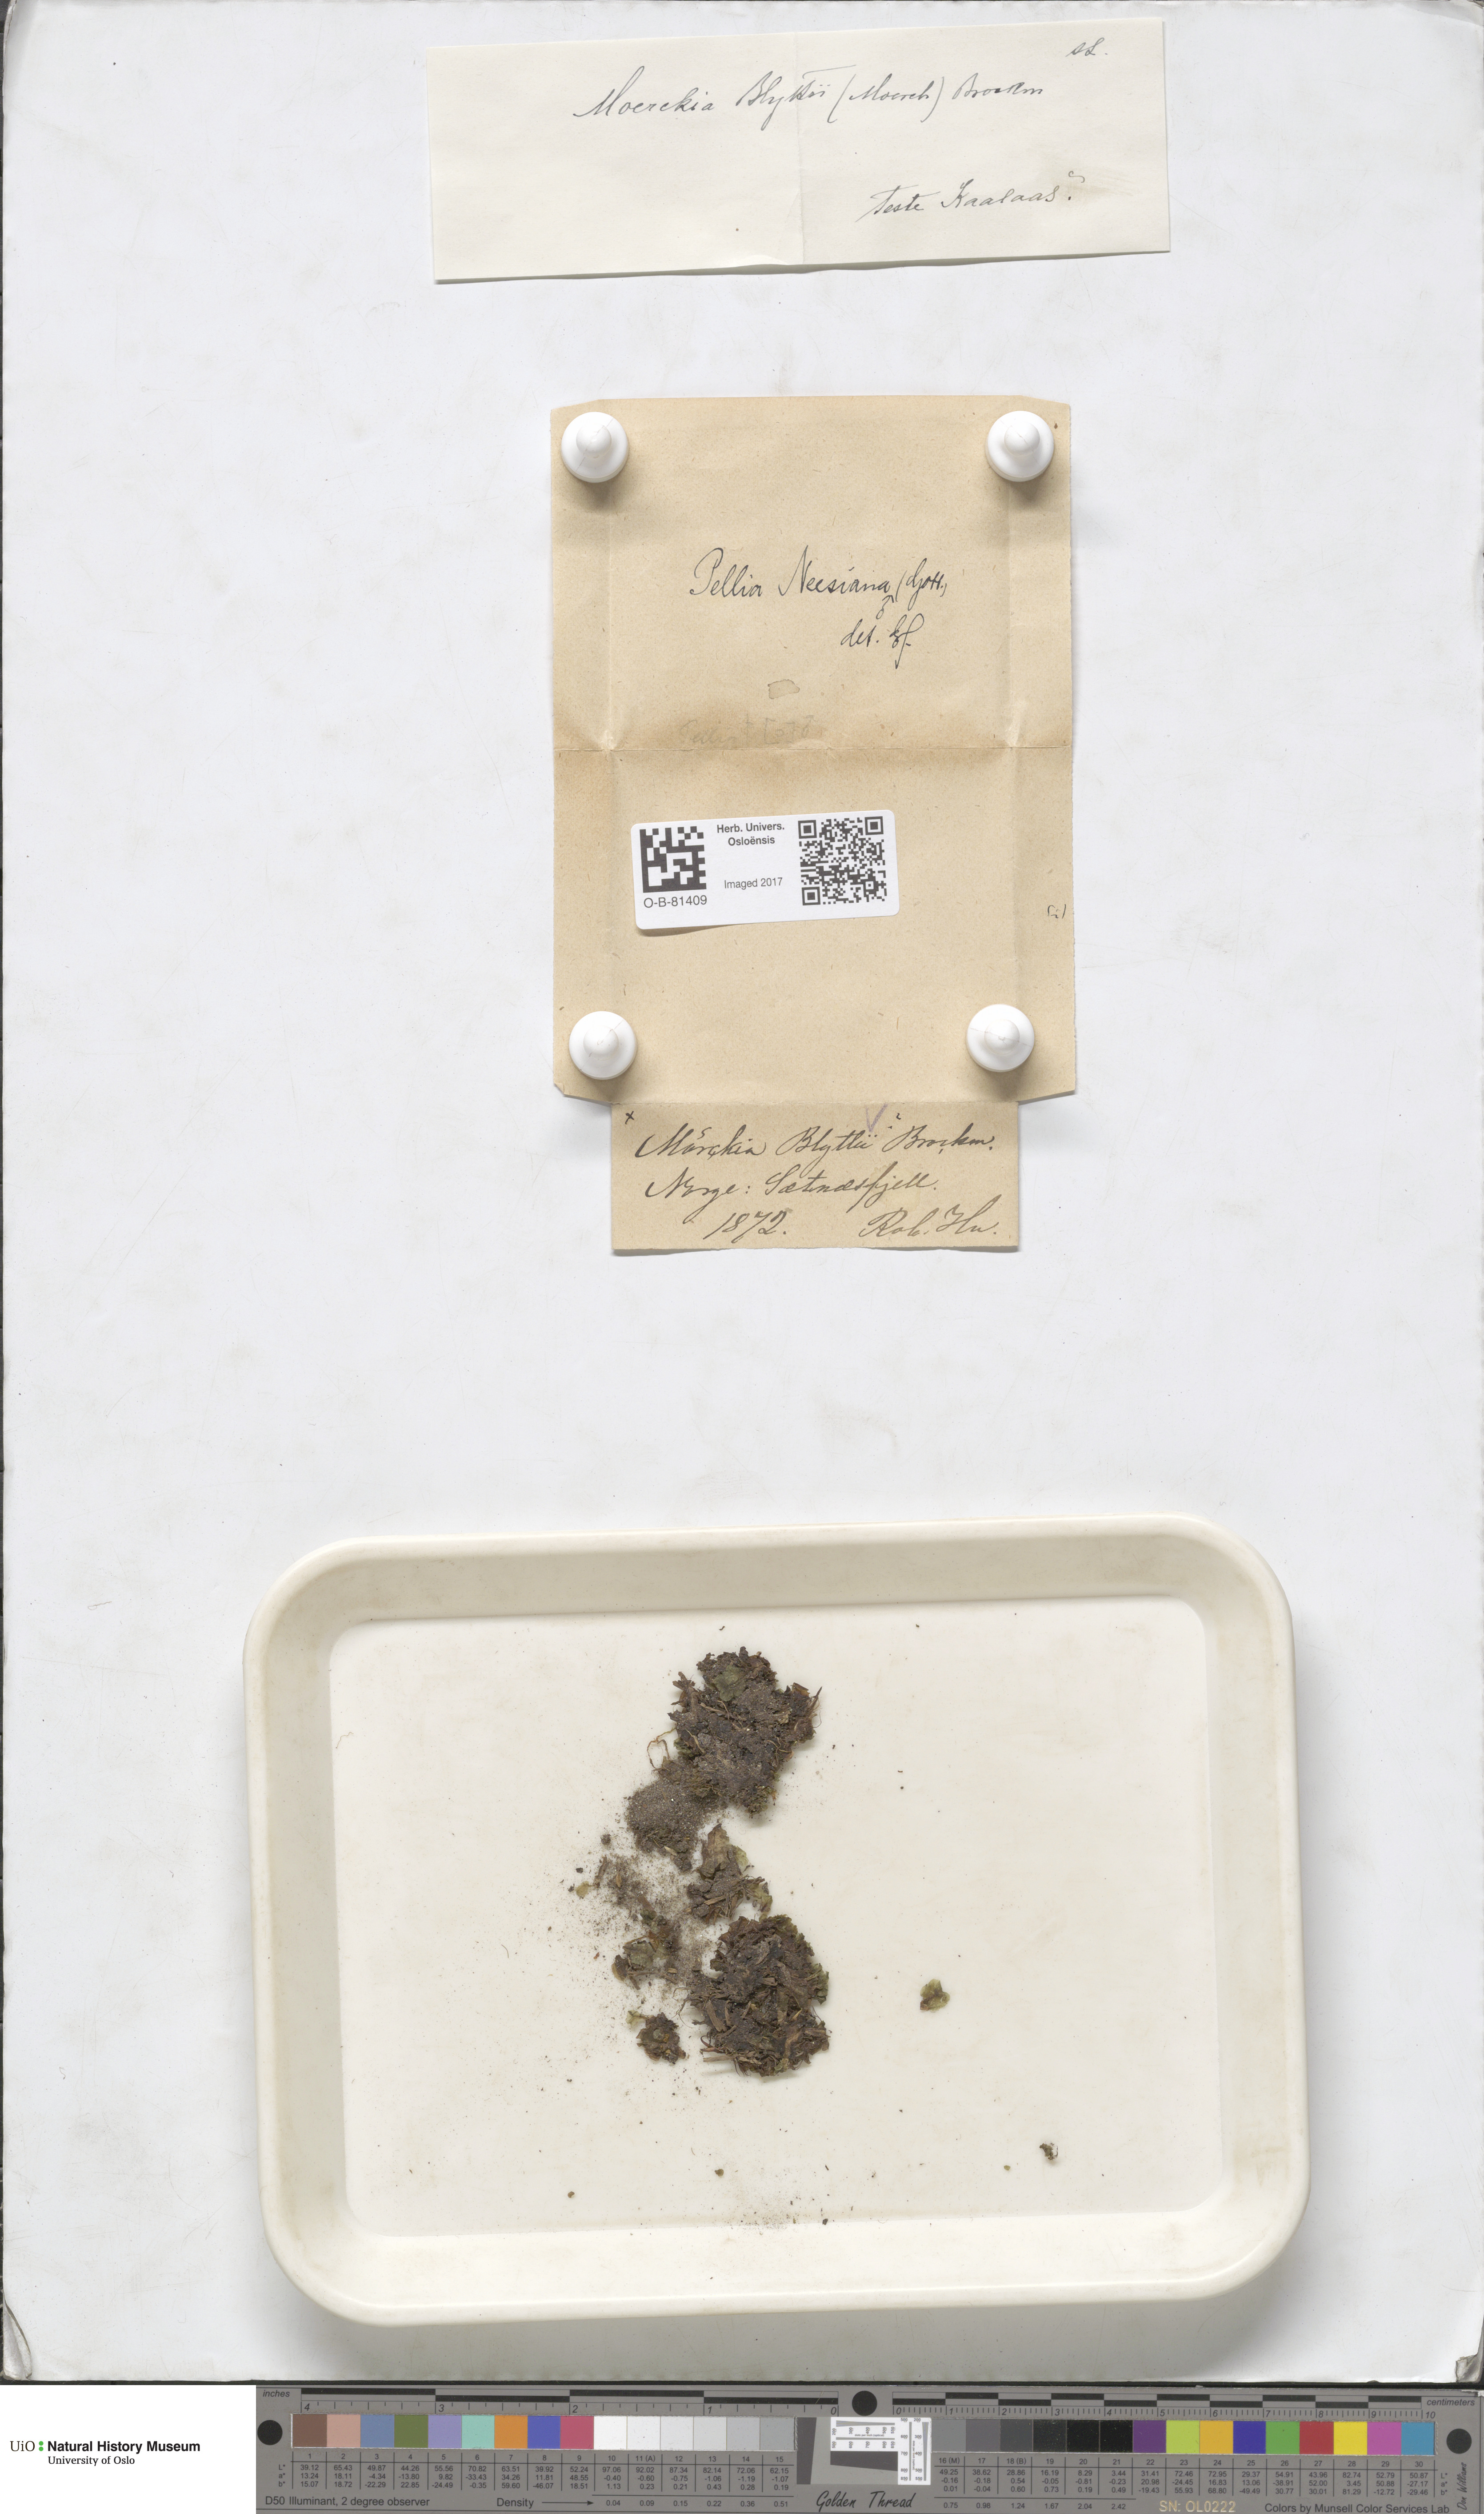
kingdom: Plantae
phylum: Marchantiophyta
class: Jungermanniopsida
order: Pelliales
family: Pelliaceae
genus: Pellia
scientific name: Pellia neesiana
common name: Nees  pellia
